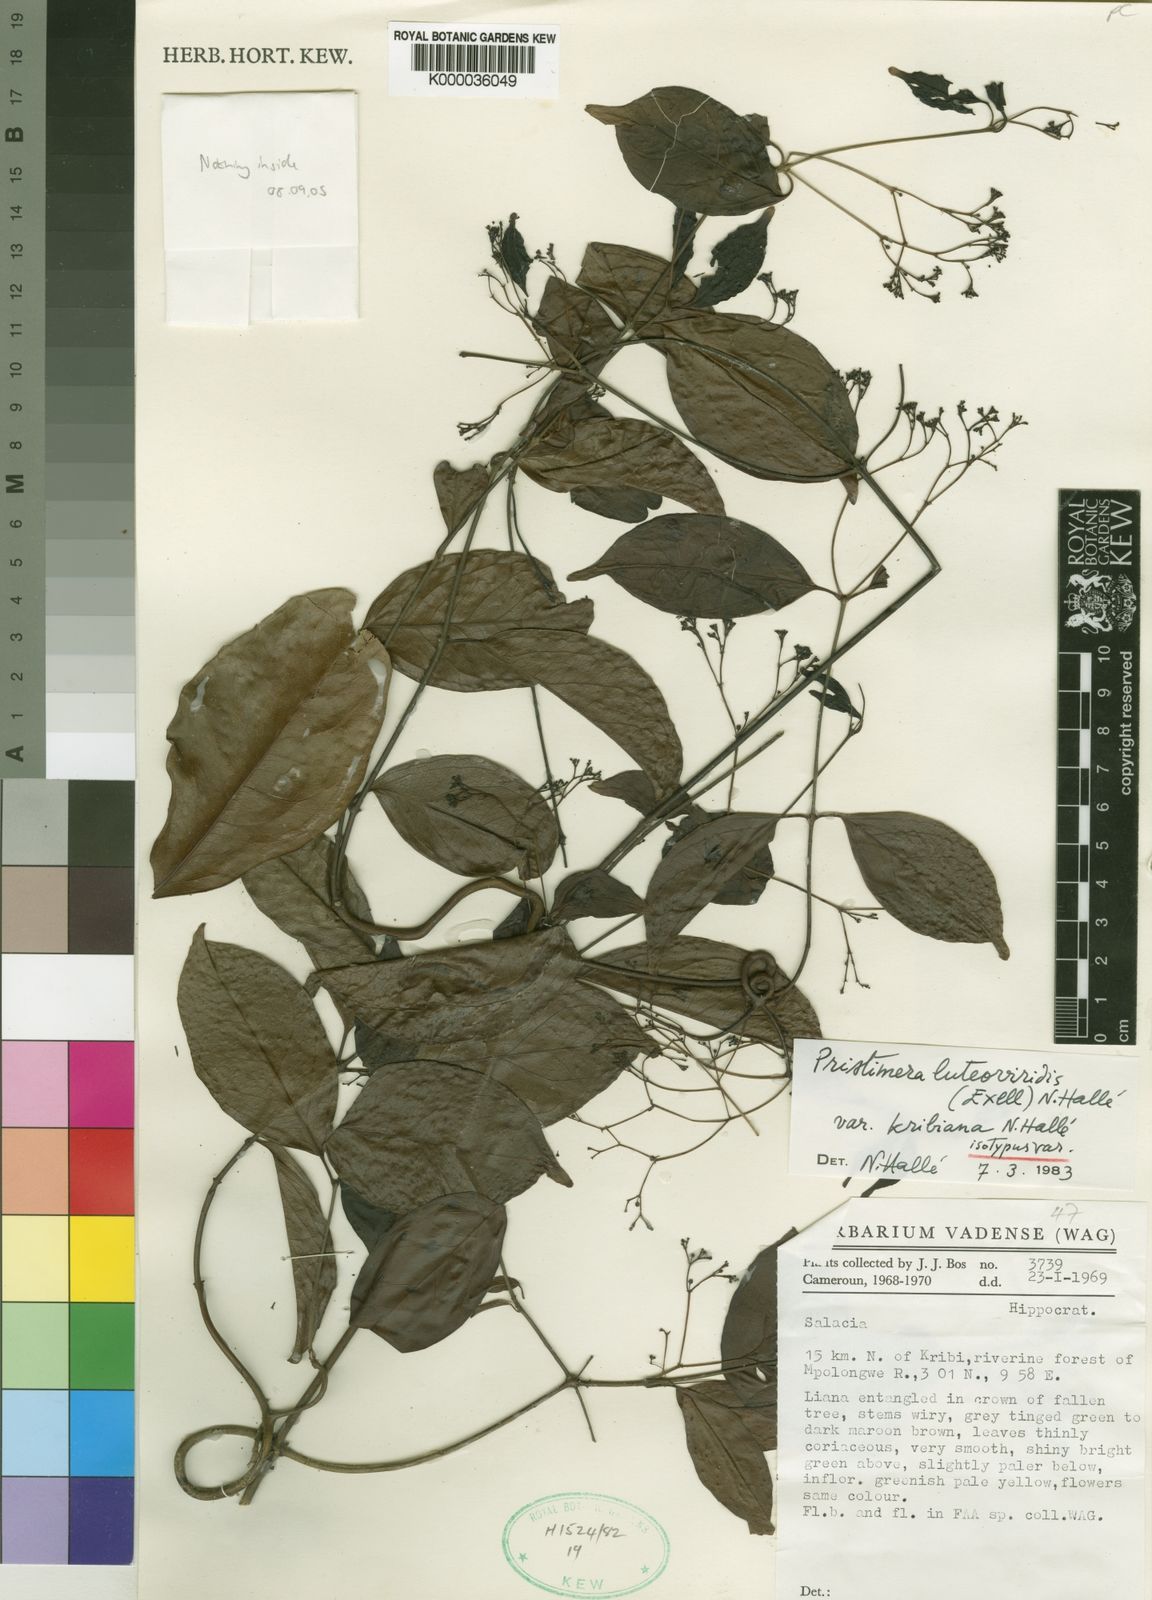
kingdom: Plantae
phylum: Tracheophyta
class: Magnoliopsida
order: Celastrales
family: Celastraceae
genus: Pristimera
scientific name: Pristimera
